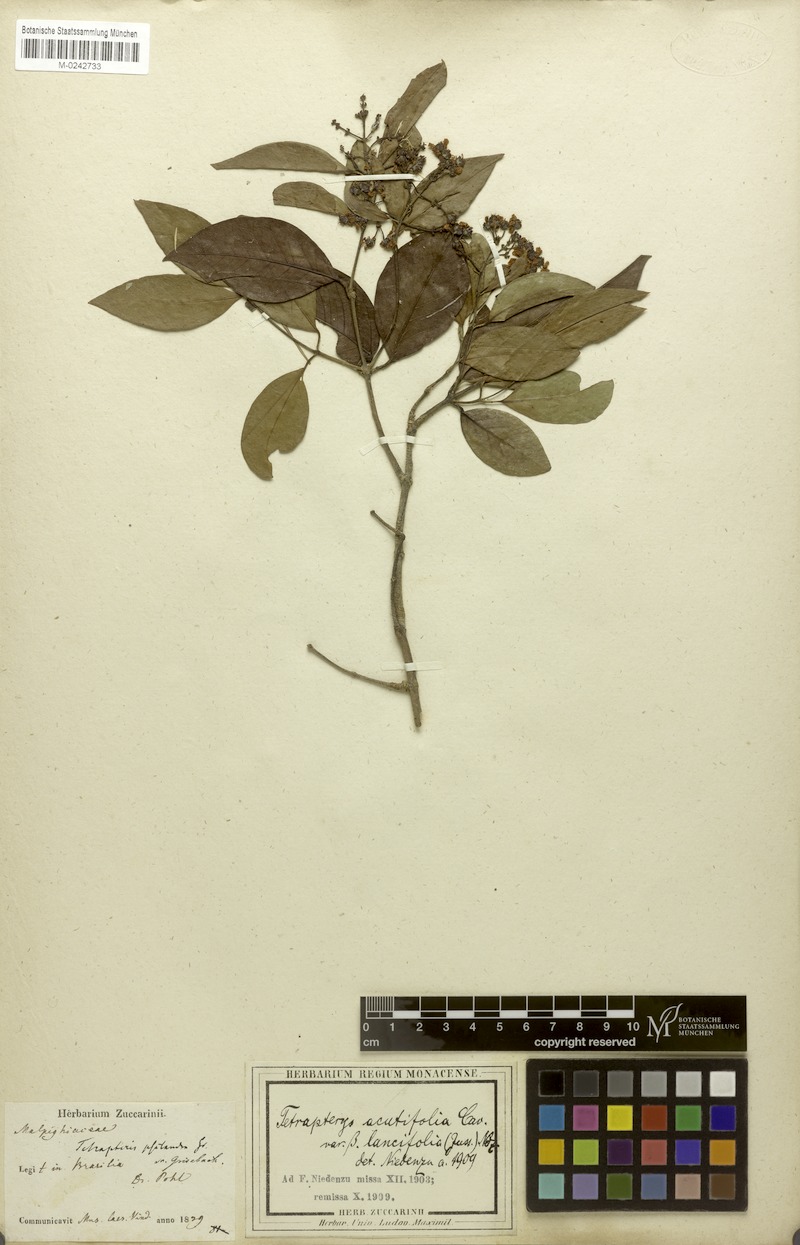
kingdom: Plantae
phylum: Tracheophyta
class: Magnoliopsida
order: Malpighiales
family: Malpighiaceae
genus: Niedenzuella
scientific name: Niedenzuella acutifolia
